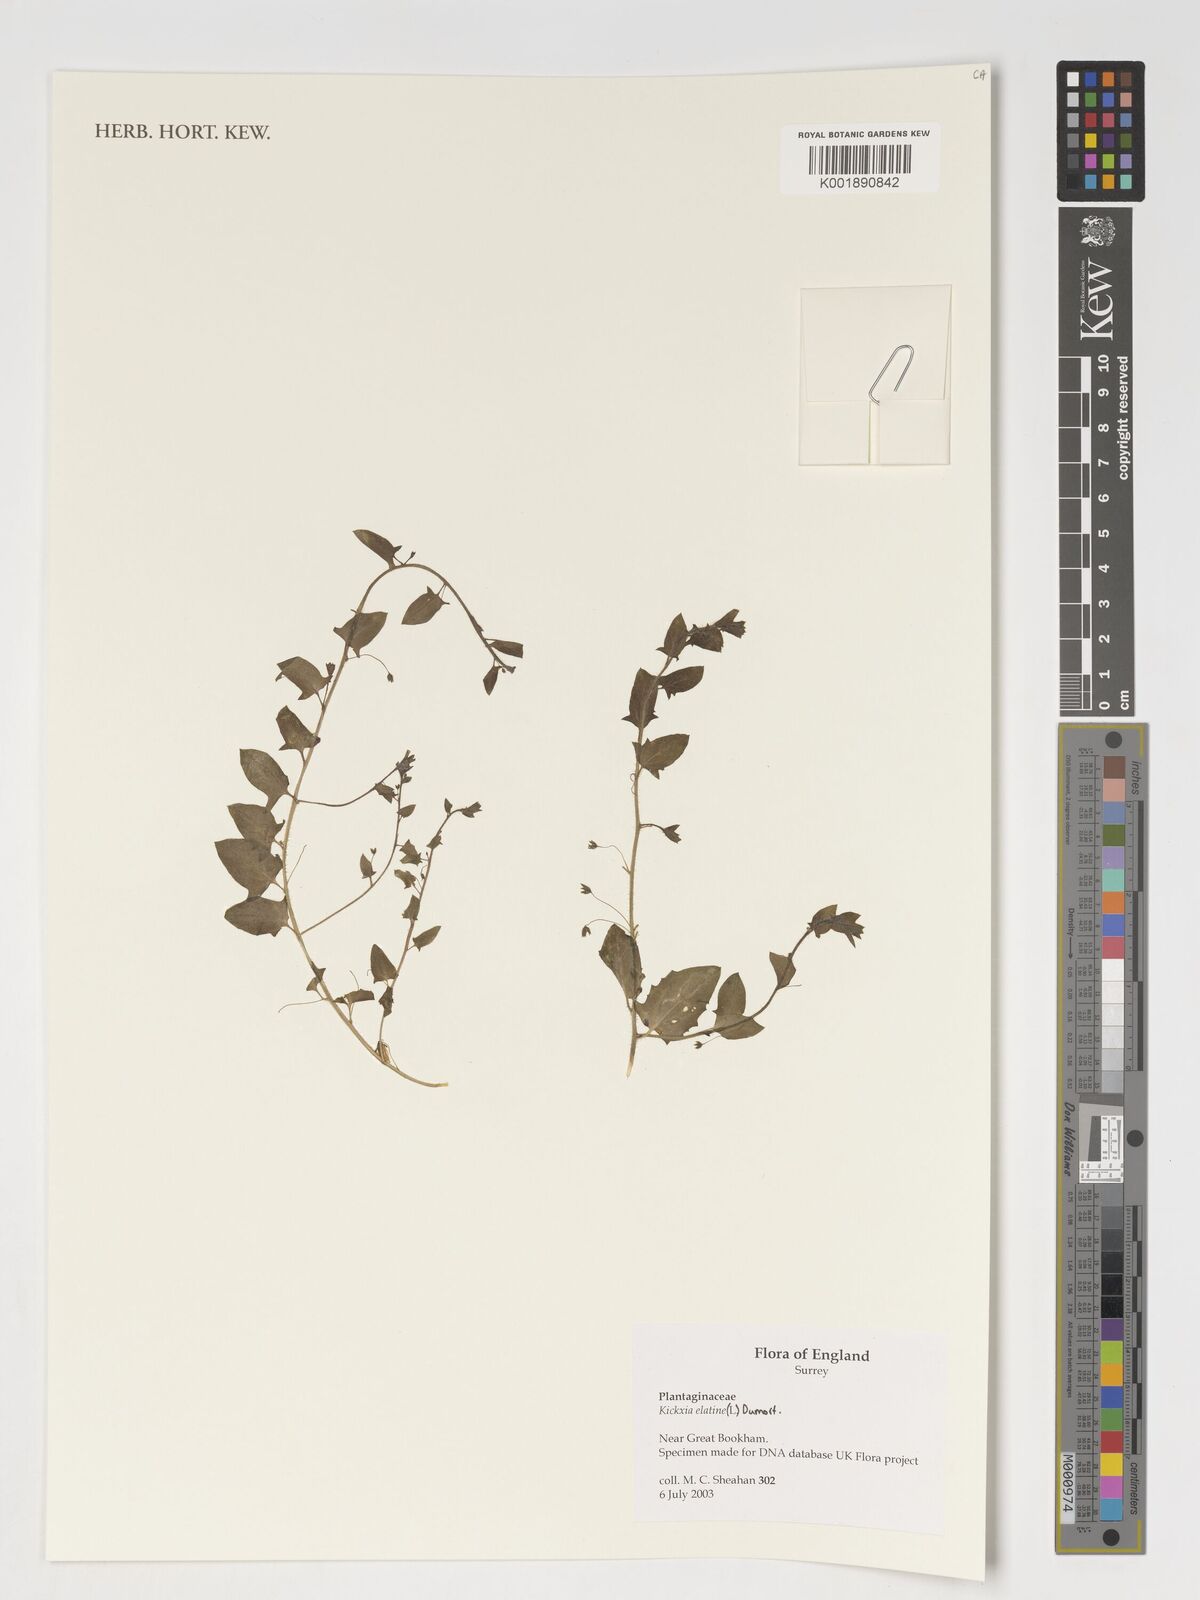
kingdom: Plantae
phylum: Tracheophyta
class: Magnoliopsida
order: Lamiales
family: Plantaginaceae
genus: Kickxia
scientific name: Kickxia elatine
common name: Sharp-leaved fluellen
